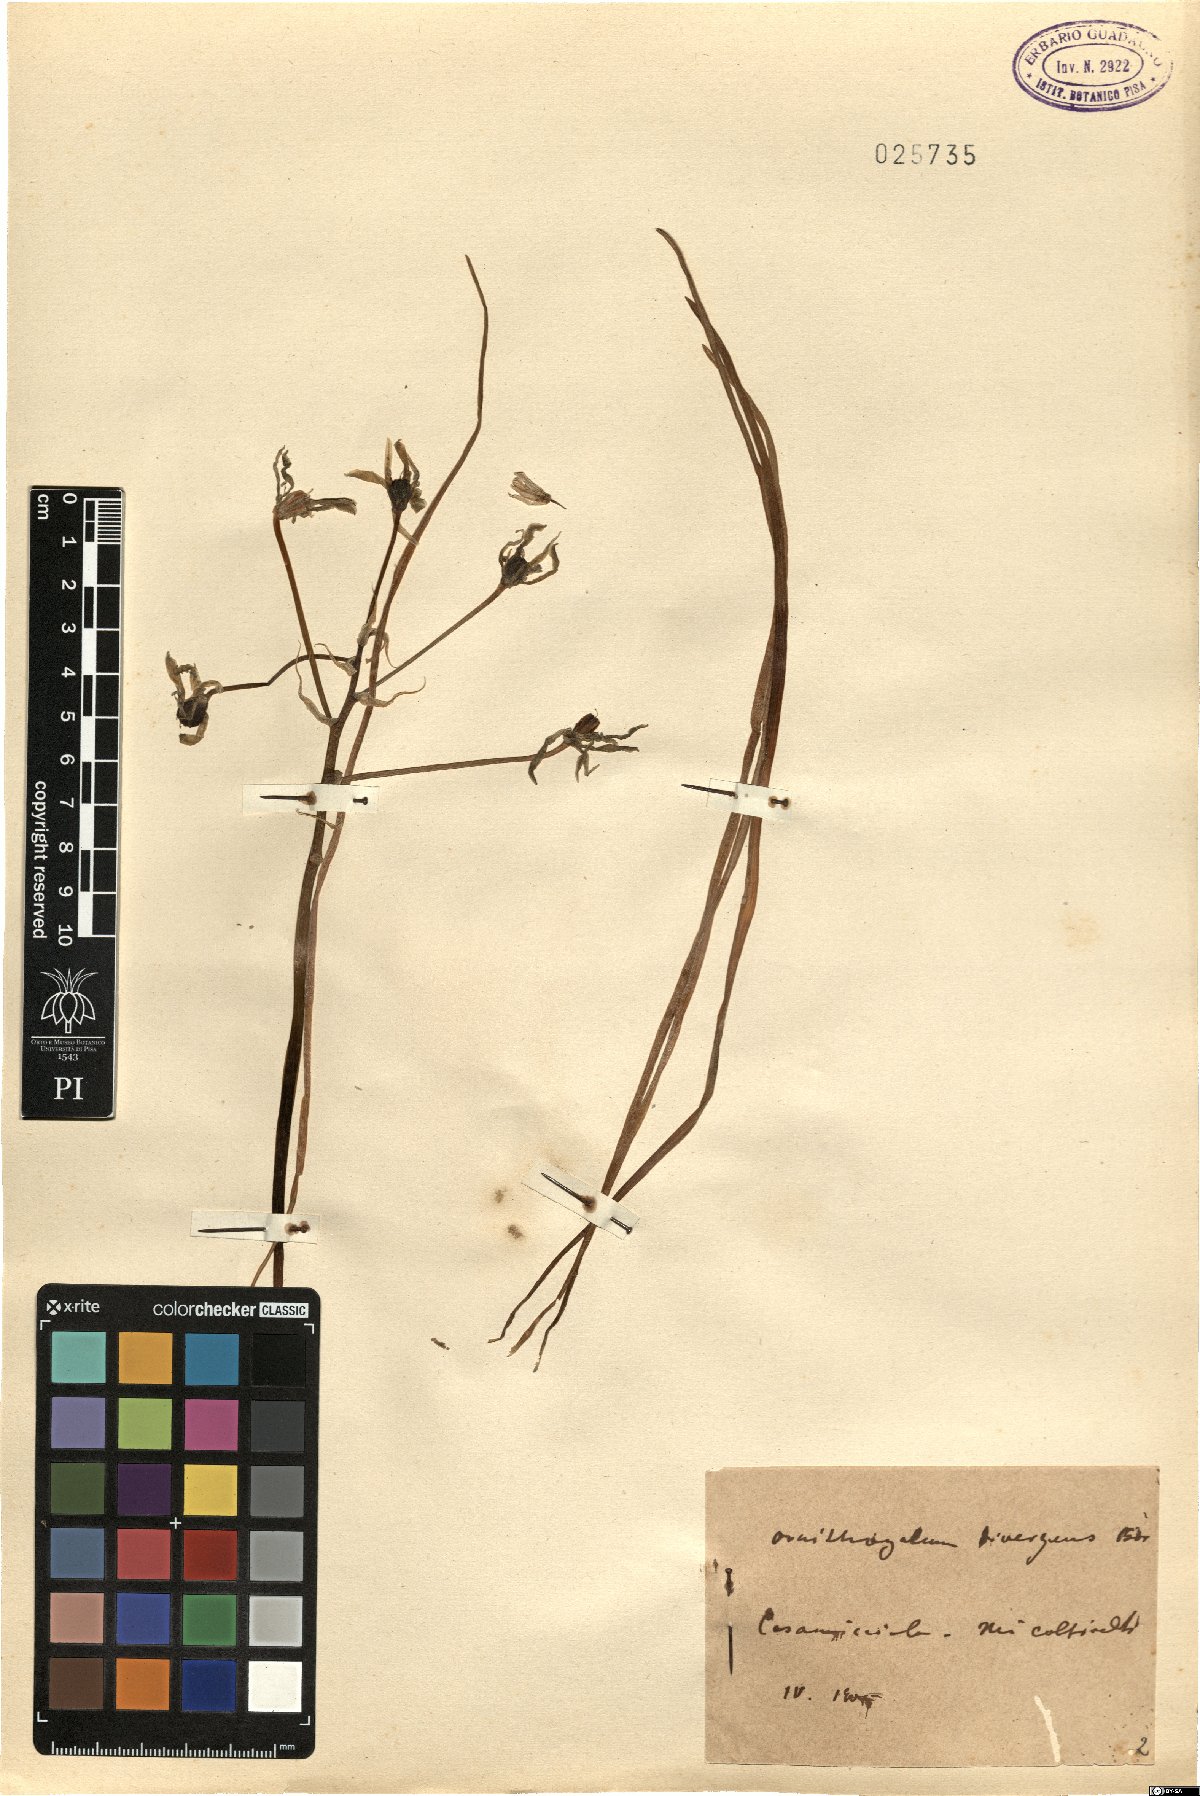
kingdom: Plantae
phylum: Tracheophyta
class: Liliopsida
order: Asparagales
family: Asparagaceae
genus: Ornithogalum
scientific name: Ornithogalum divergens
